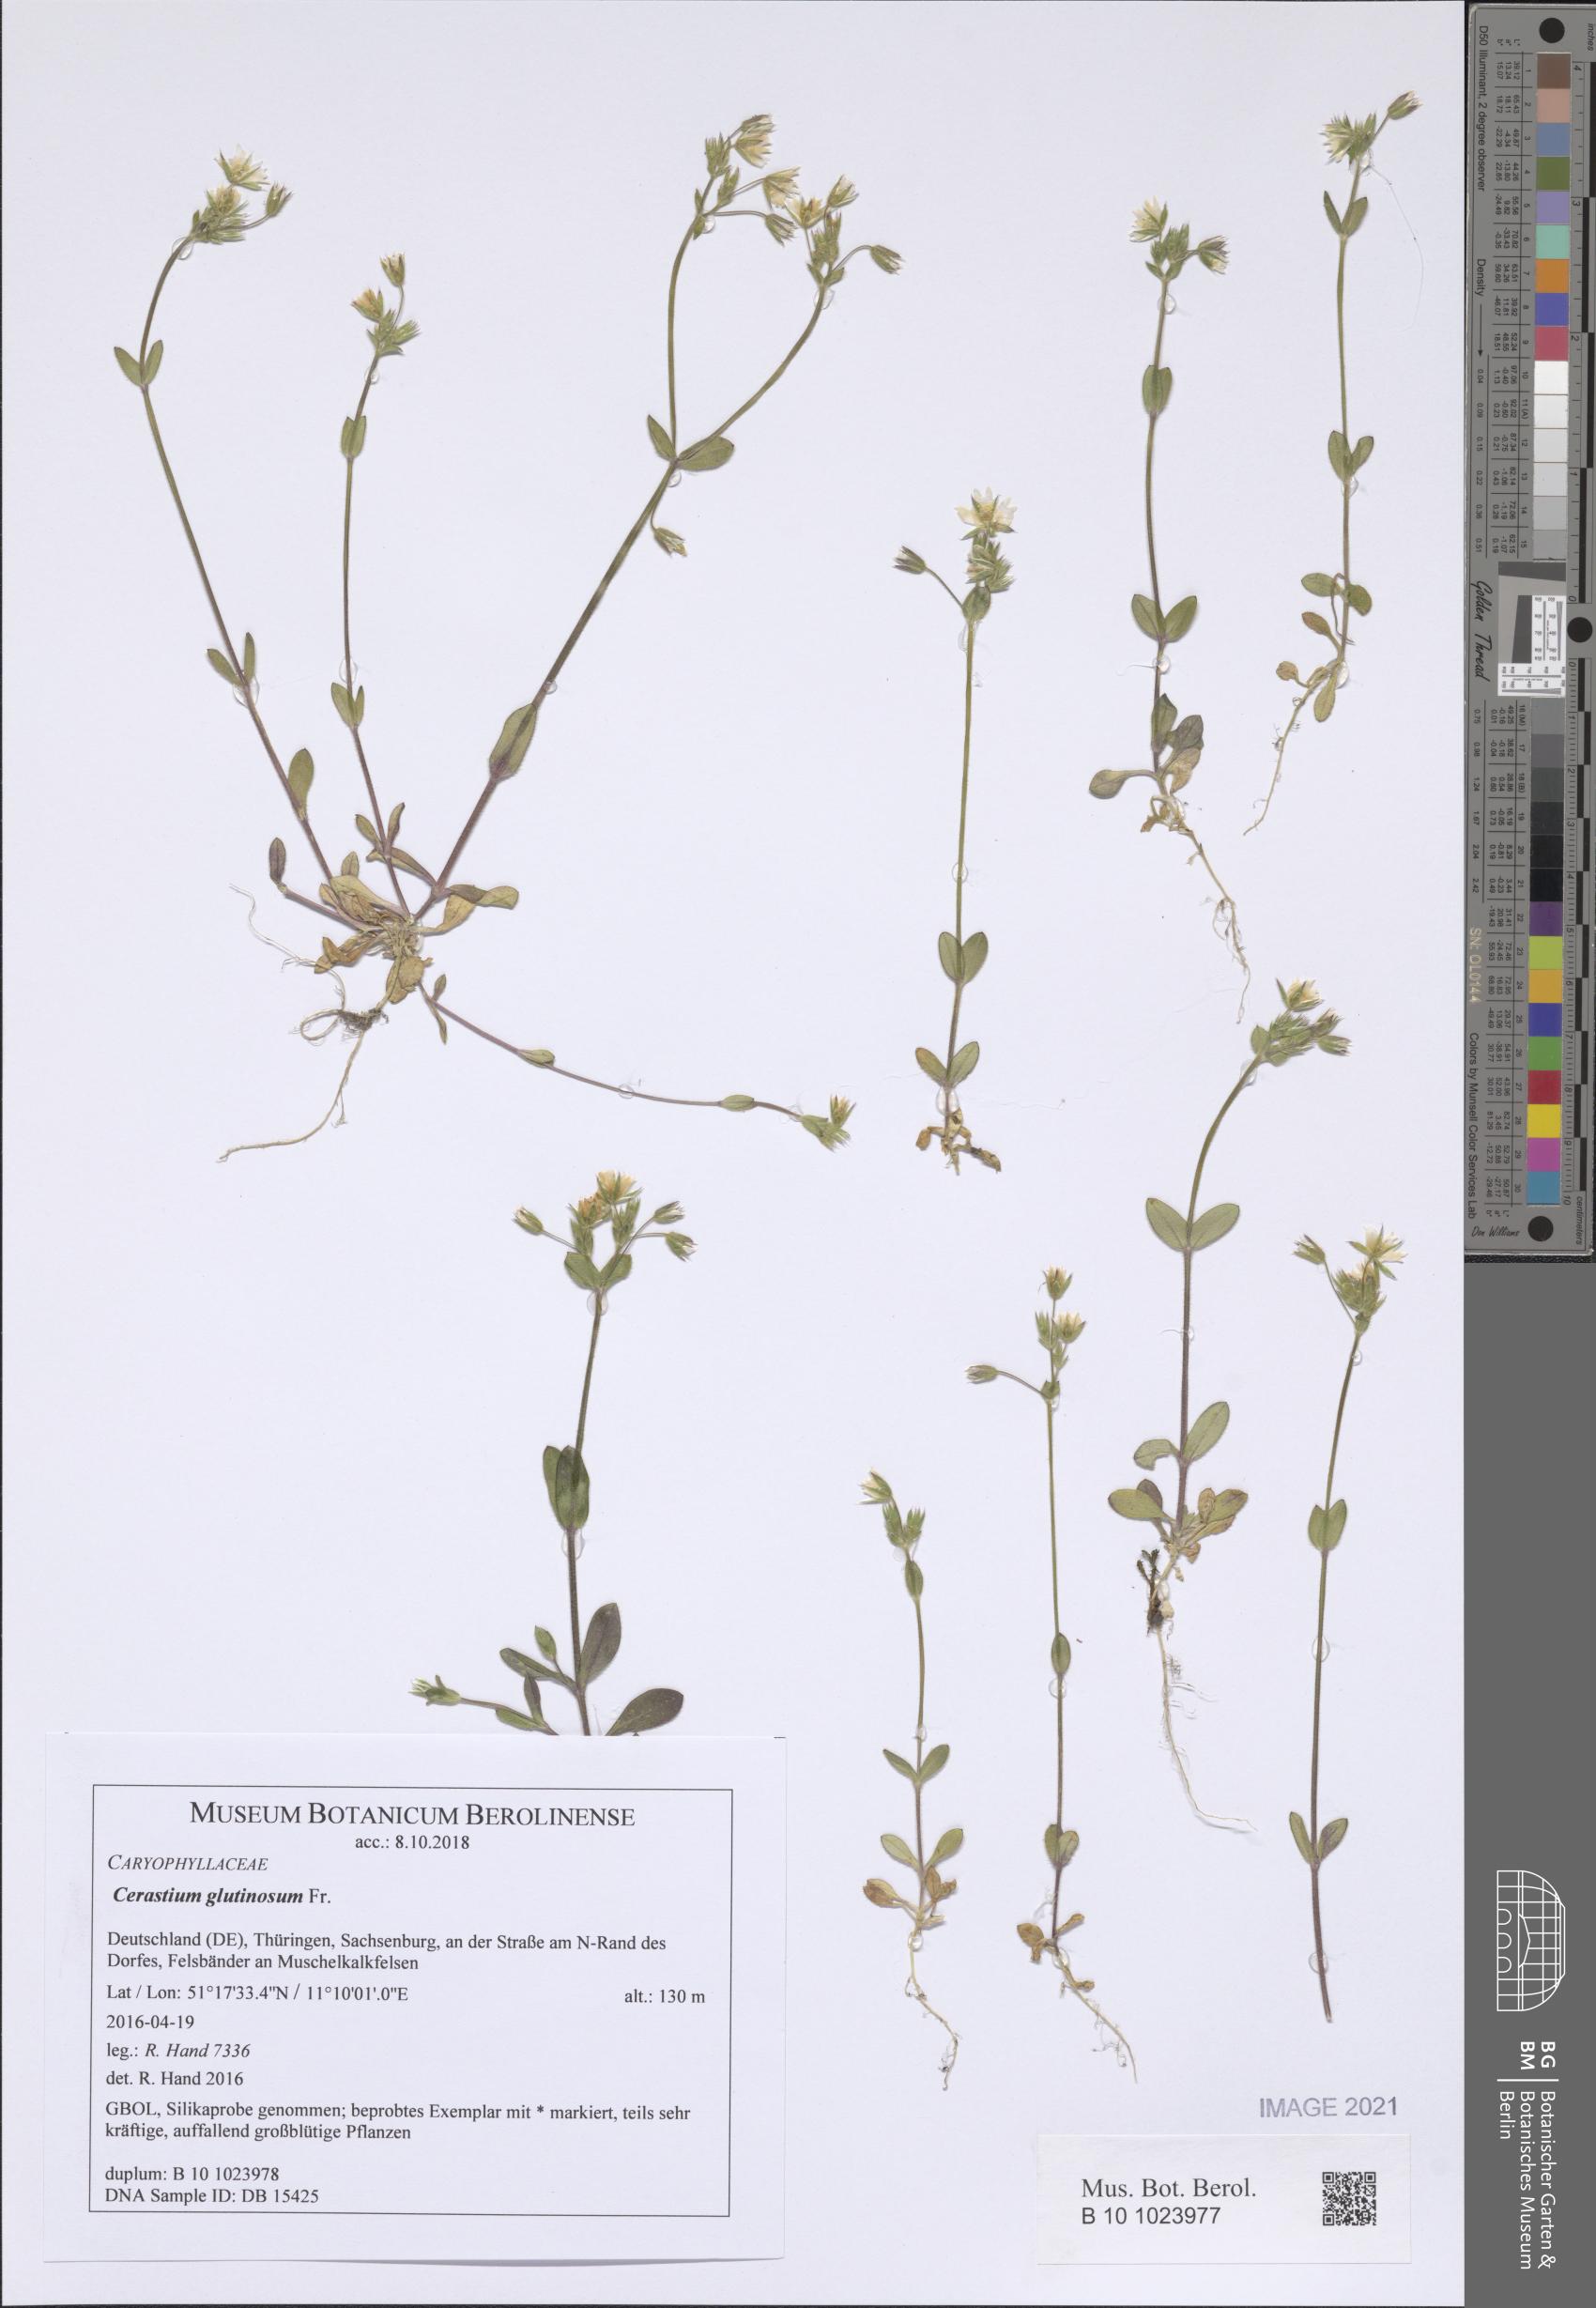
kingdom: Plantae
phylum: Tracheophyta
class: Magnoliopsida
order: Caryophyllales
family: Caryophyllaceae
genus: Cerastium
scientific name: Cerastium glutinosum
